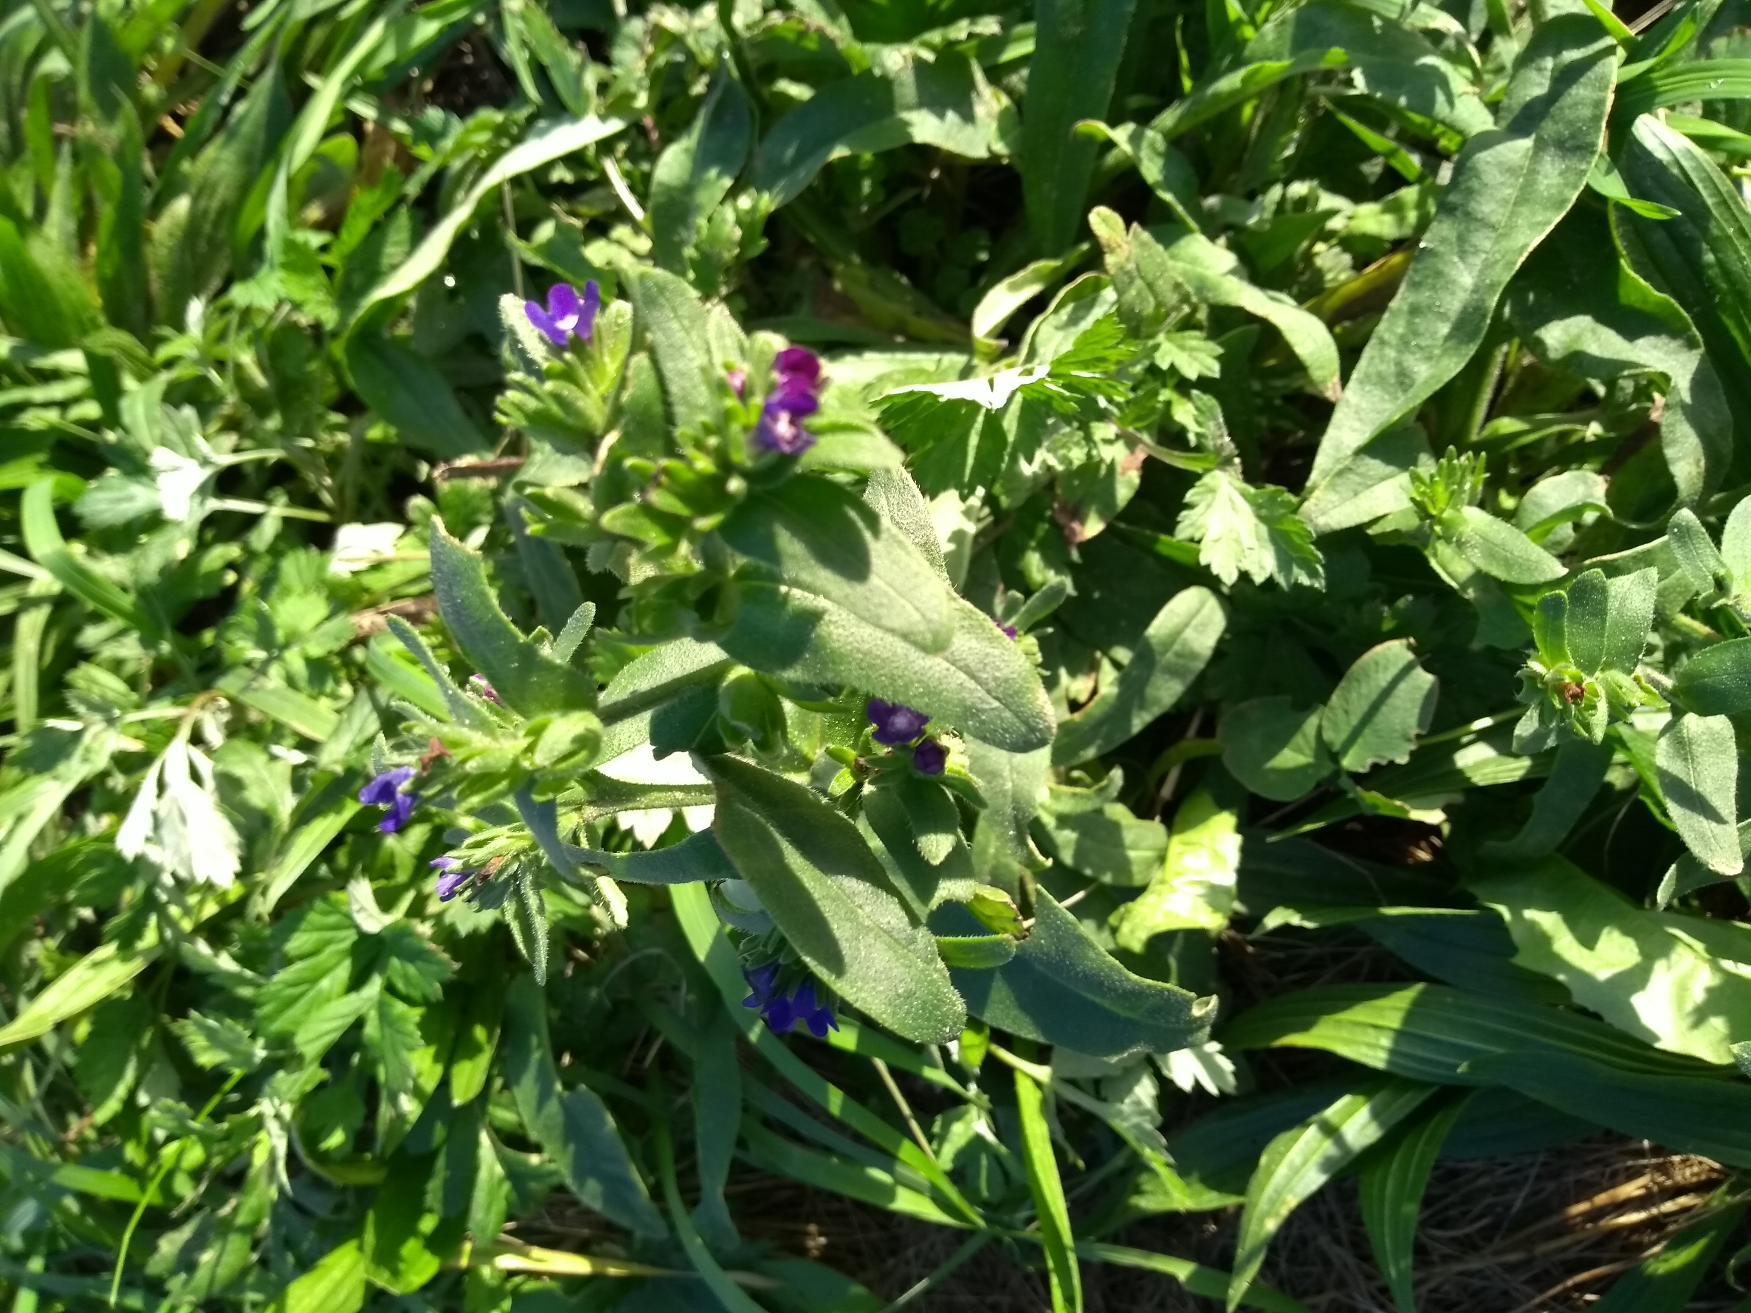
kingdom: Plantae
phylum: Tracheophyta
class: Magnoliopsida
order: Boraginales
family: Boraginaceae
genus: Anchusa
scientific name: Anchusa officinalis
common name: Læge-oksetunge
